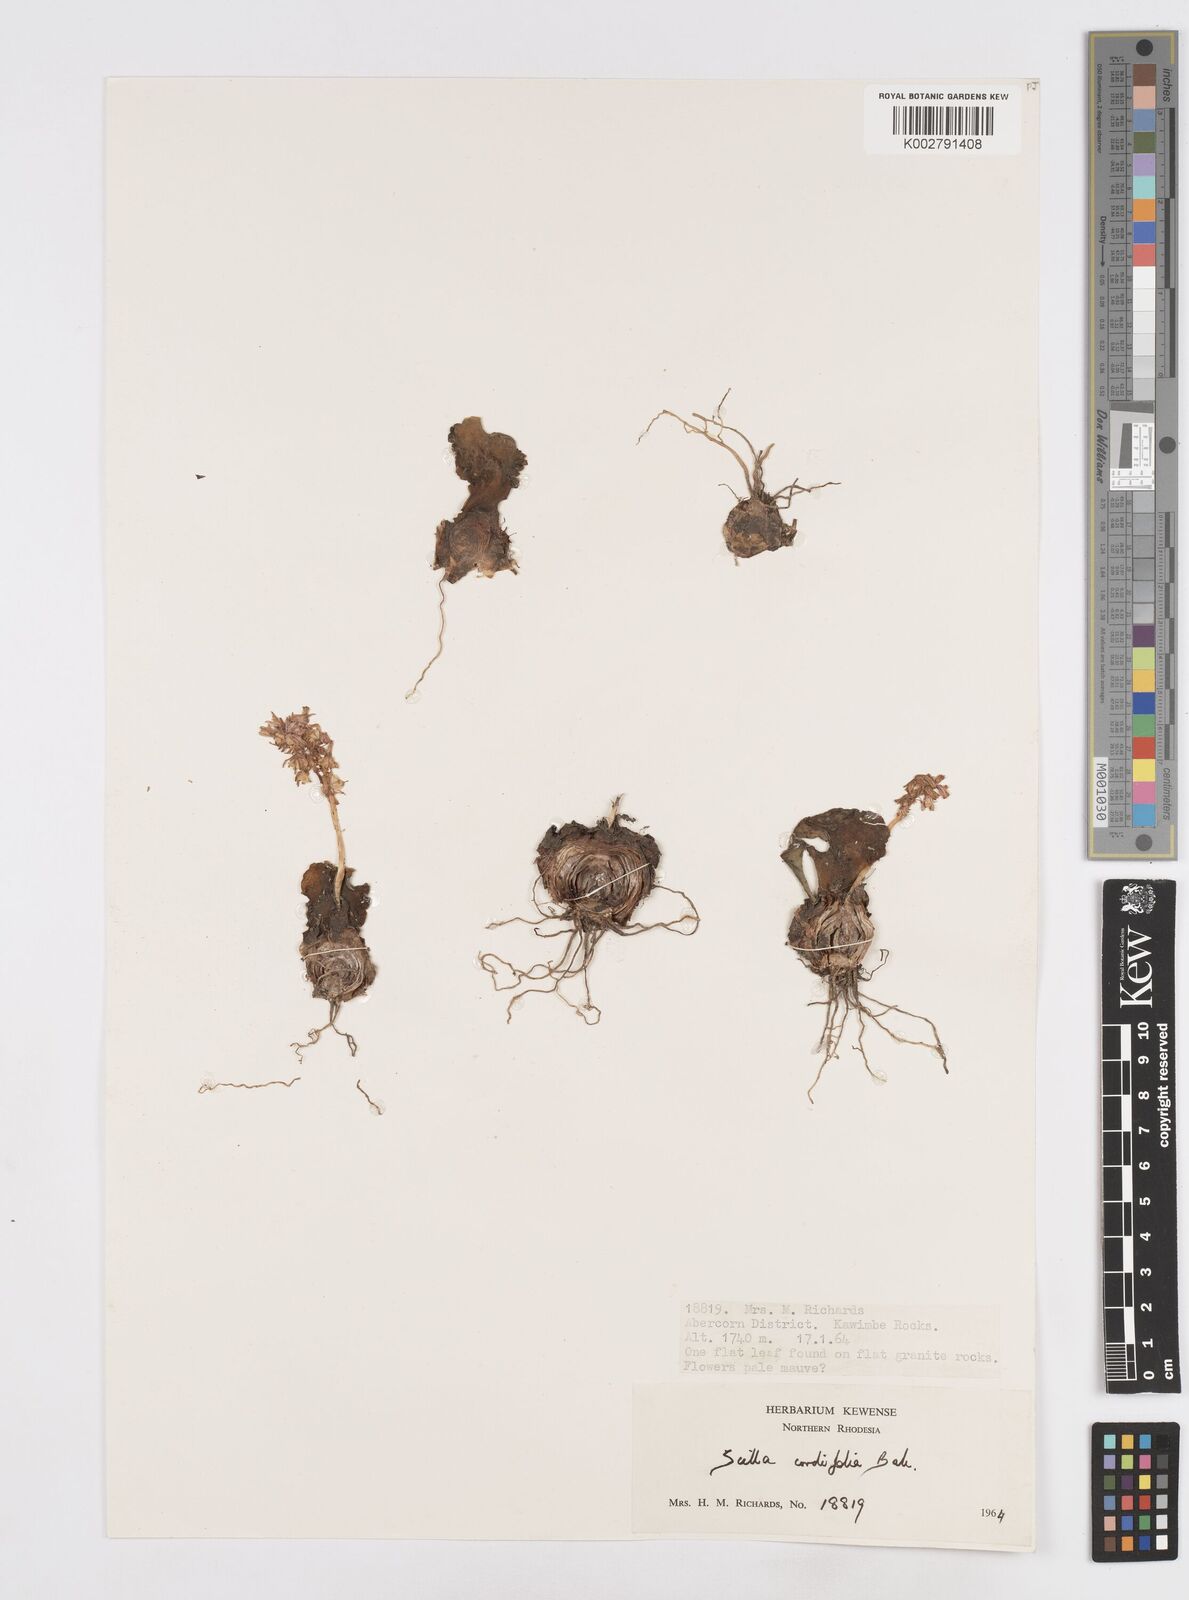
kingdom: Plantae
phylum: Tracheophyta
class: Liliopsida
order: Asparagales
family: Asparagaceae
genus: Ledebouria
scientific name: Ledebouria cordifolia
